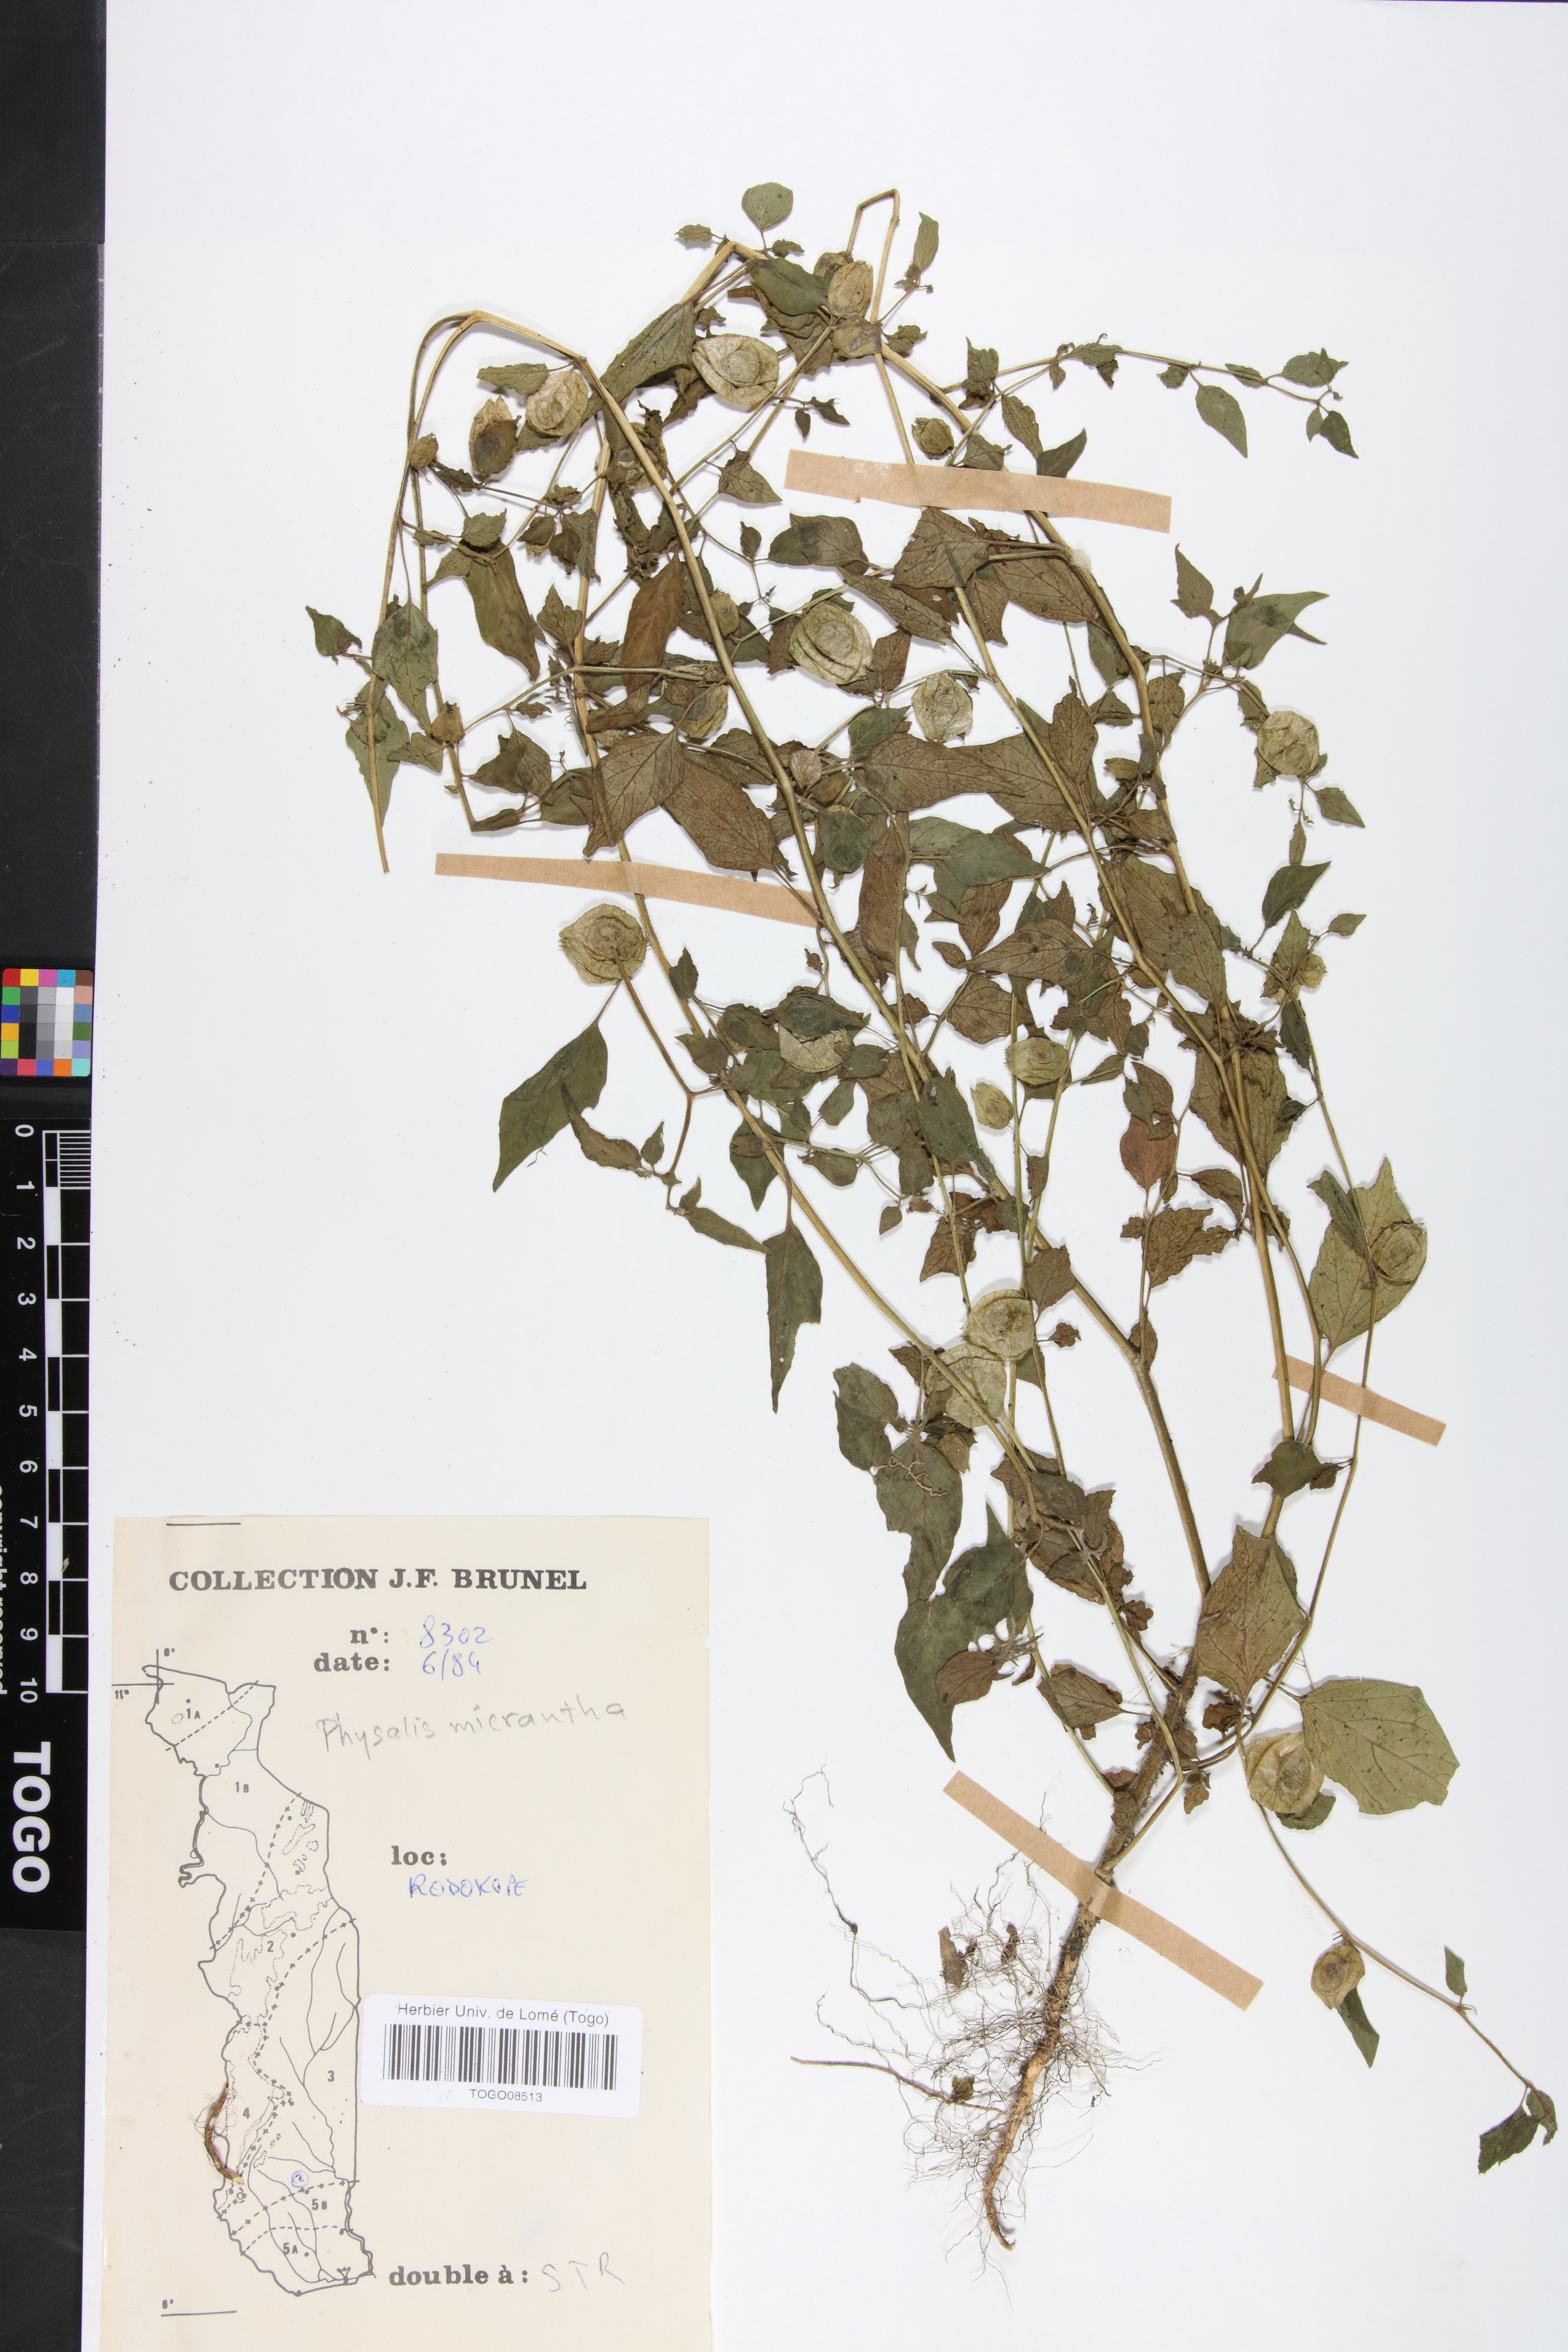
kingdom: Plantae
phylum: Tracheophyta
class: Magnoliopsida
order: Solanales
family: Solanaceae
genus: Physalis
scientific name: Physalis lagascae
